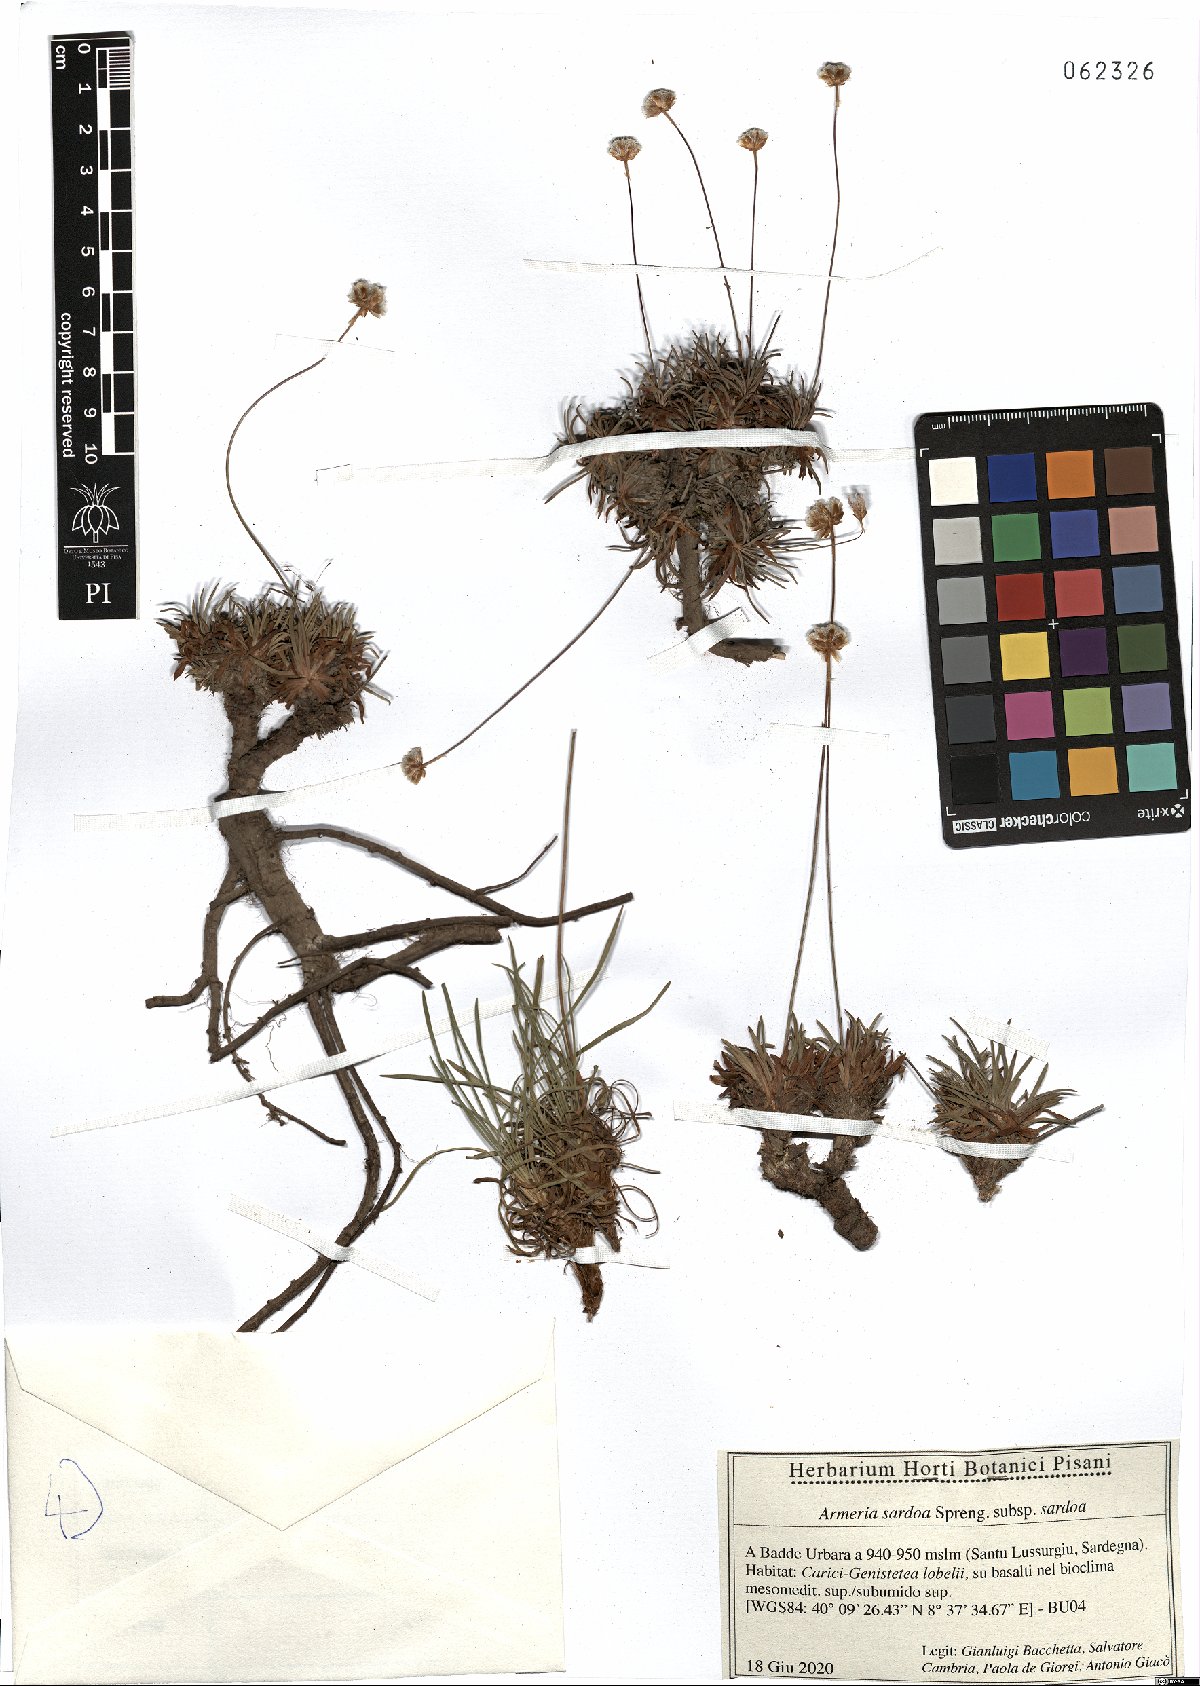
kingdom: Plantae
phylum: Tracheophyta
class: Magnoliopsida
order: Caryophyllales
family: Plumbaginaceae
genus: Armeria
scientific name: Armeria sardoa
